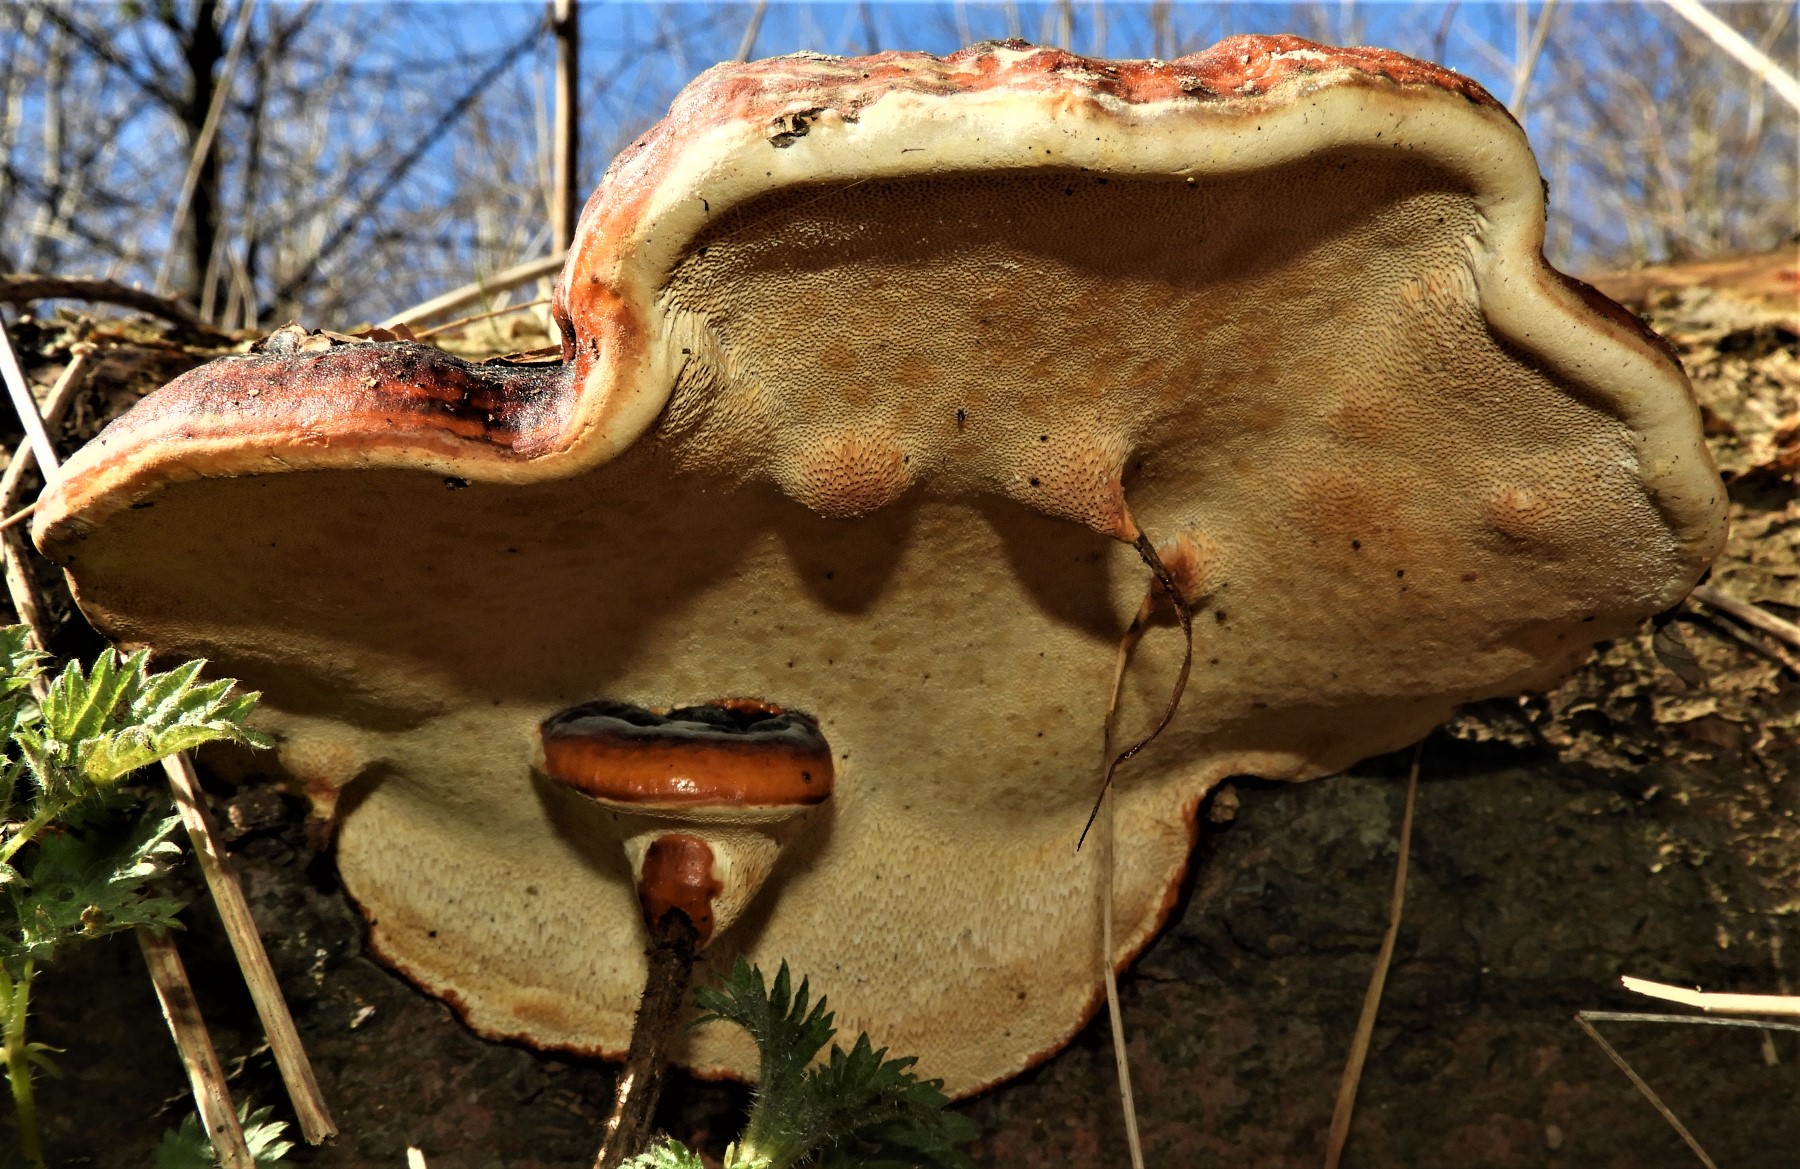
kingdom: Fungi
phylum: Basidiomycota
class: Agaricomycetes
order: Polyporales
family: Fomitopsidaceae
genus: Fomitopsis
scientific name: Fomitopsis pinicola
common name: randbæltet hovporesvamp
